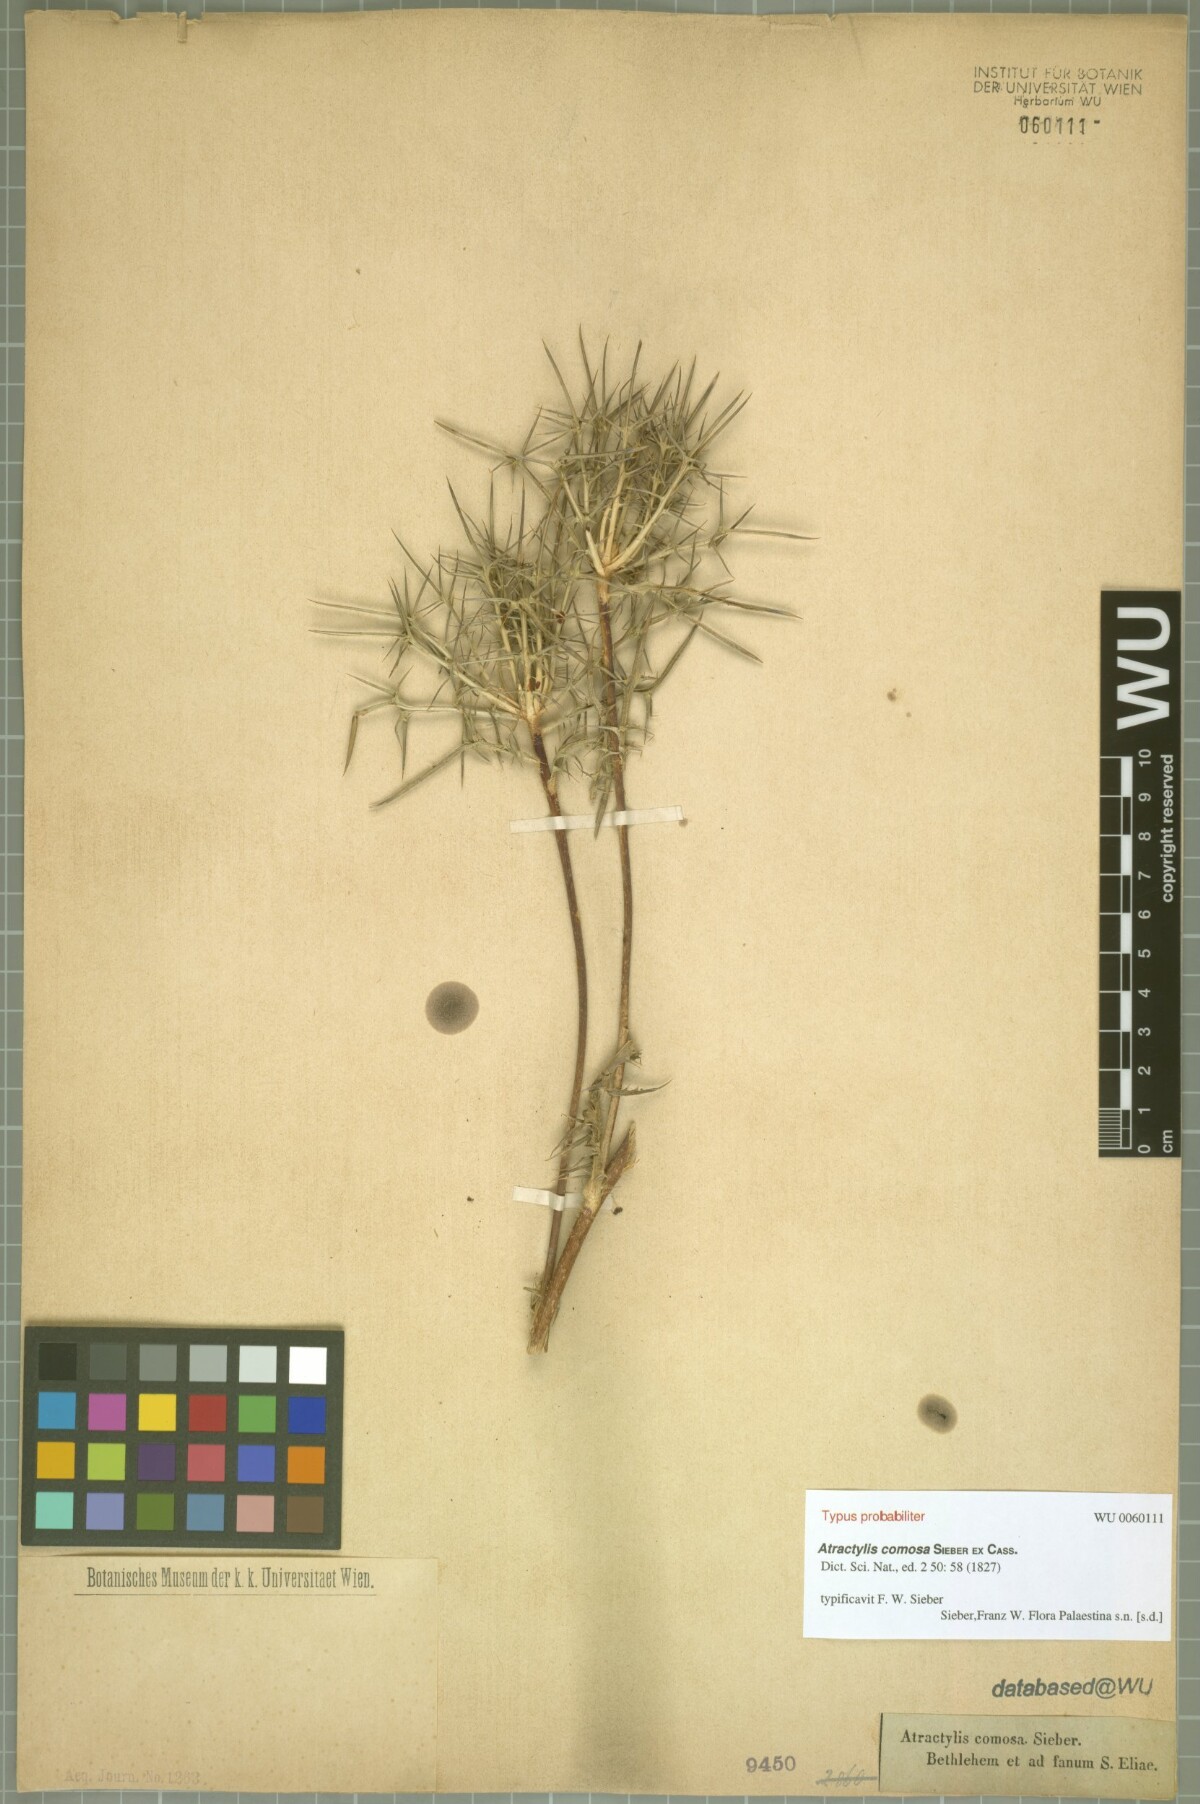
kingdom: Plantae
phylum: Tracheophyta
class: Magnoliopsida
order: Asterales
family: Asteraceae
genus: Chamaeleon
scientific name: Chamaeleon comosus
